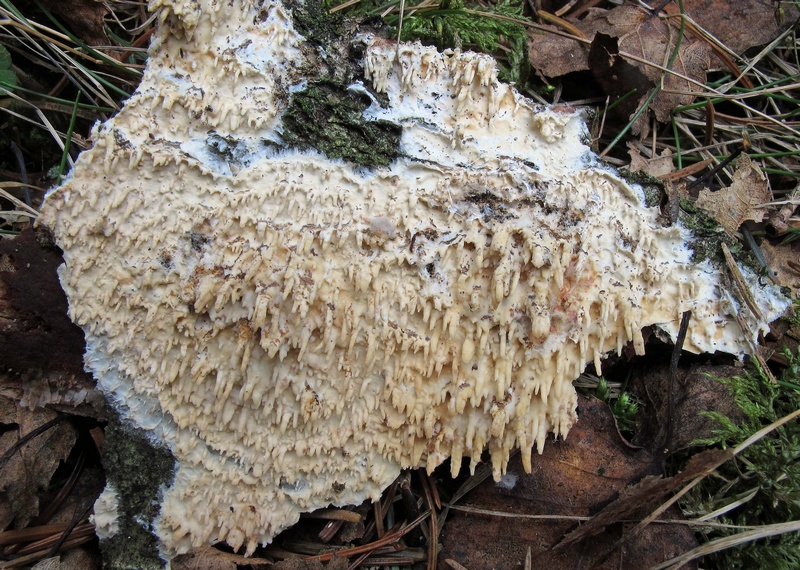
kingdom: Fungi
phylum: Basidiomycota
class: Agaricomycetes
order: Hymenochaetales
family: Schizoporaceae
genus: Xylodon
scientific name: Xylodon radula
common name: grovtandet kalkskind
